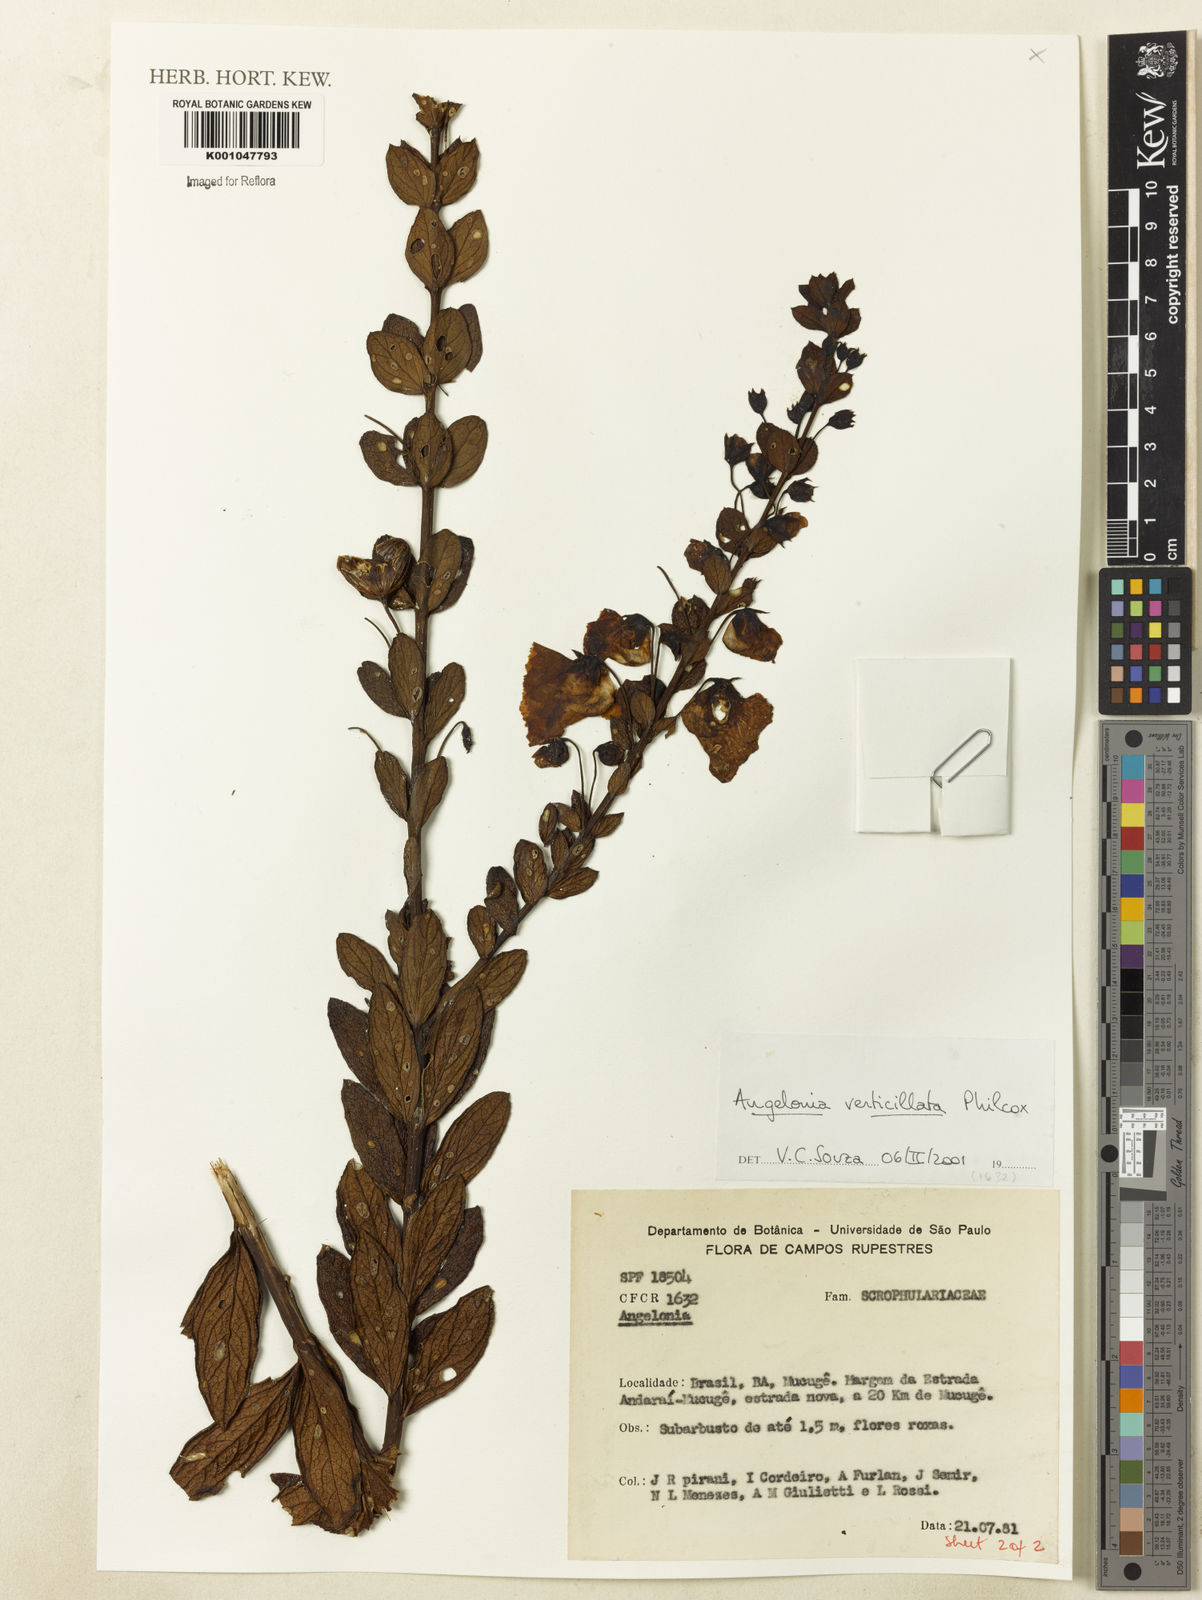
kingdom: Plantae
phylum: Tracheophyta
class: Magnoliopsida
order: Lamiales
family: Plantaginaceae
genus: Angelonia
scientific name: Angelonia verticillata
